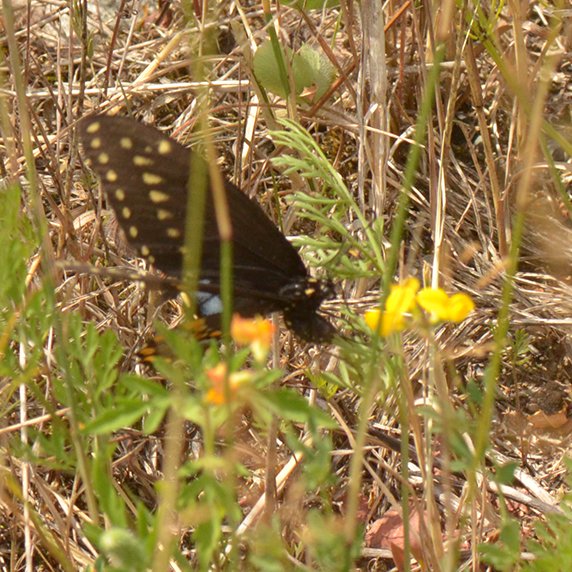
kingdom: Animalia
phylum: Arthropoda
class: Insecta
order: Lepidoptera
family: Papilionidae
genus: Papilio
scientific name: Papilio polyxenes
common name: Black Swallowtail
